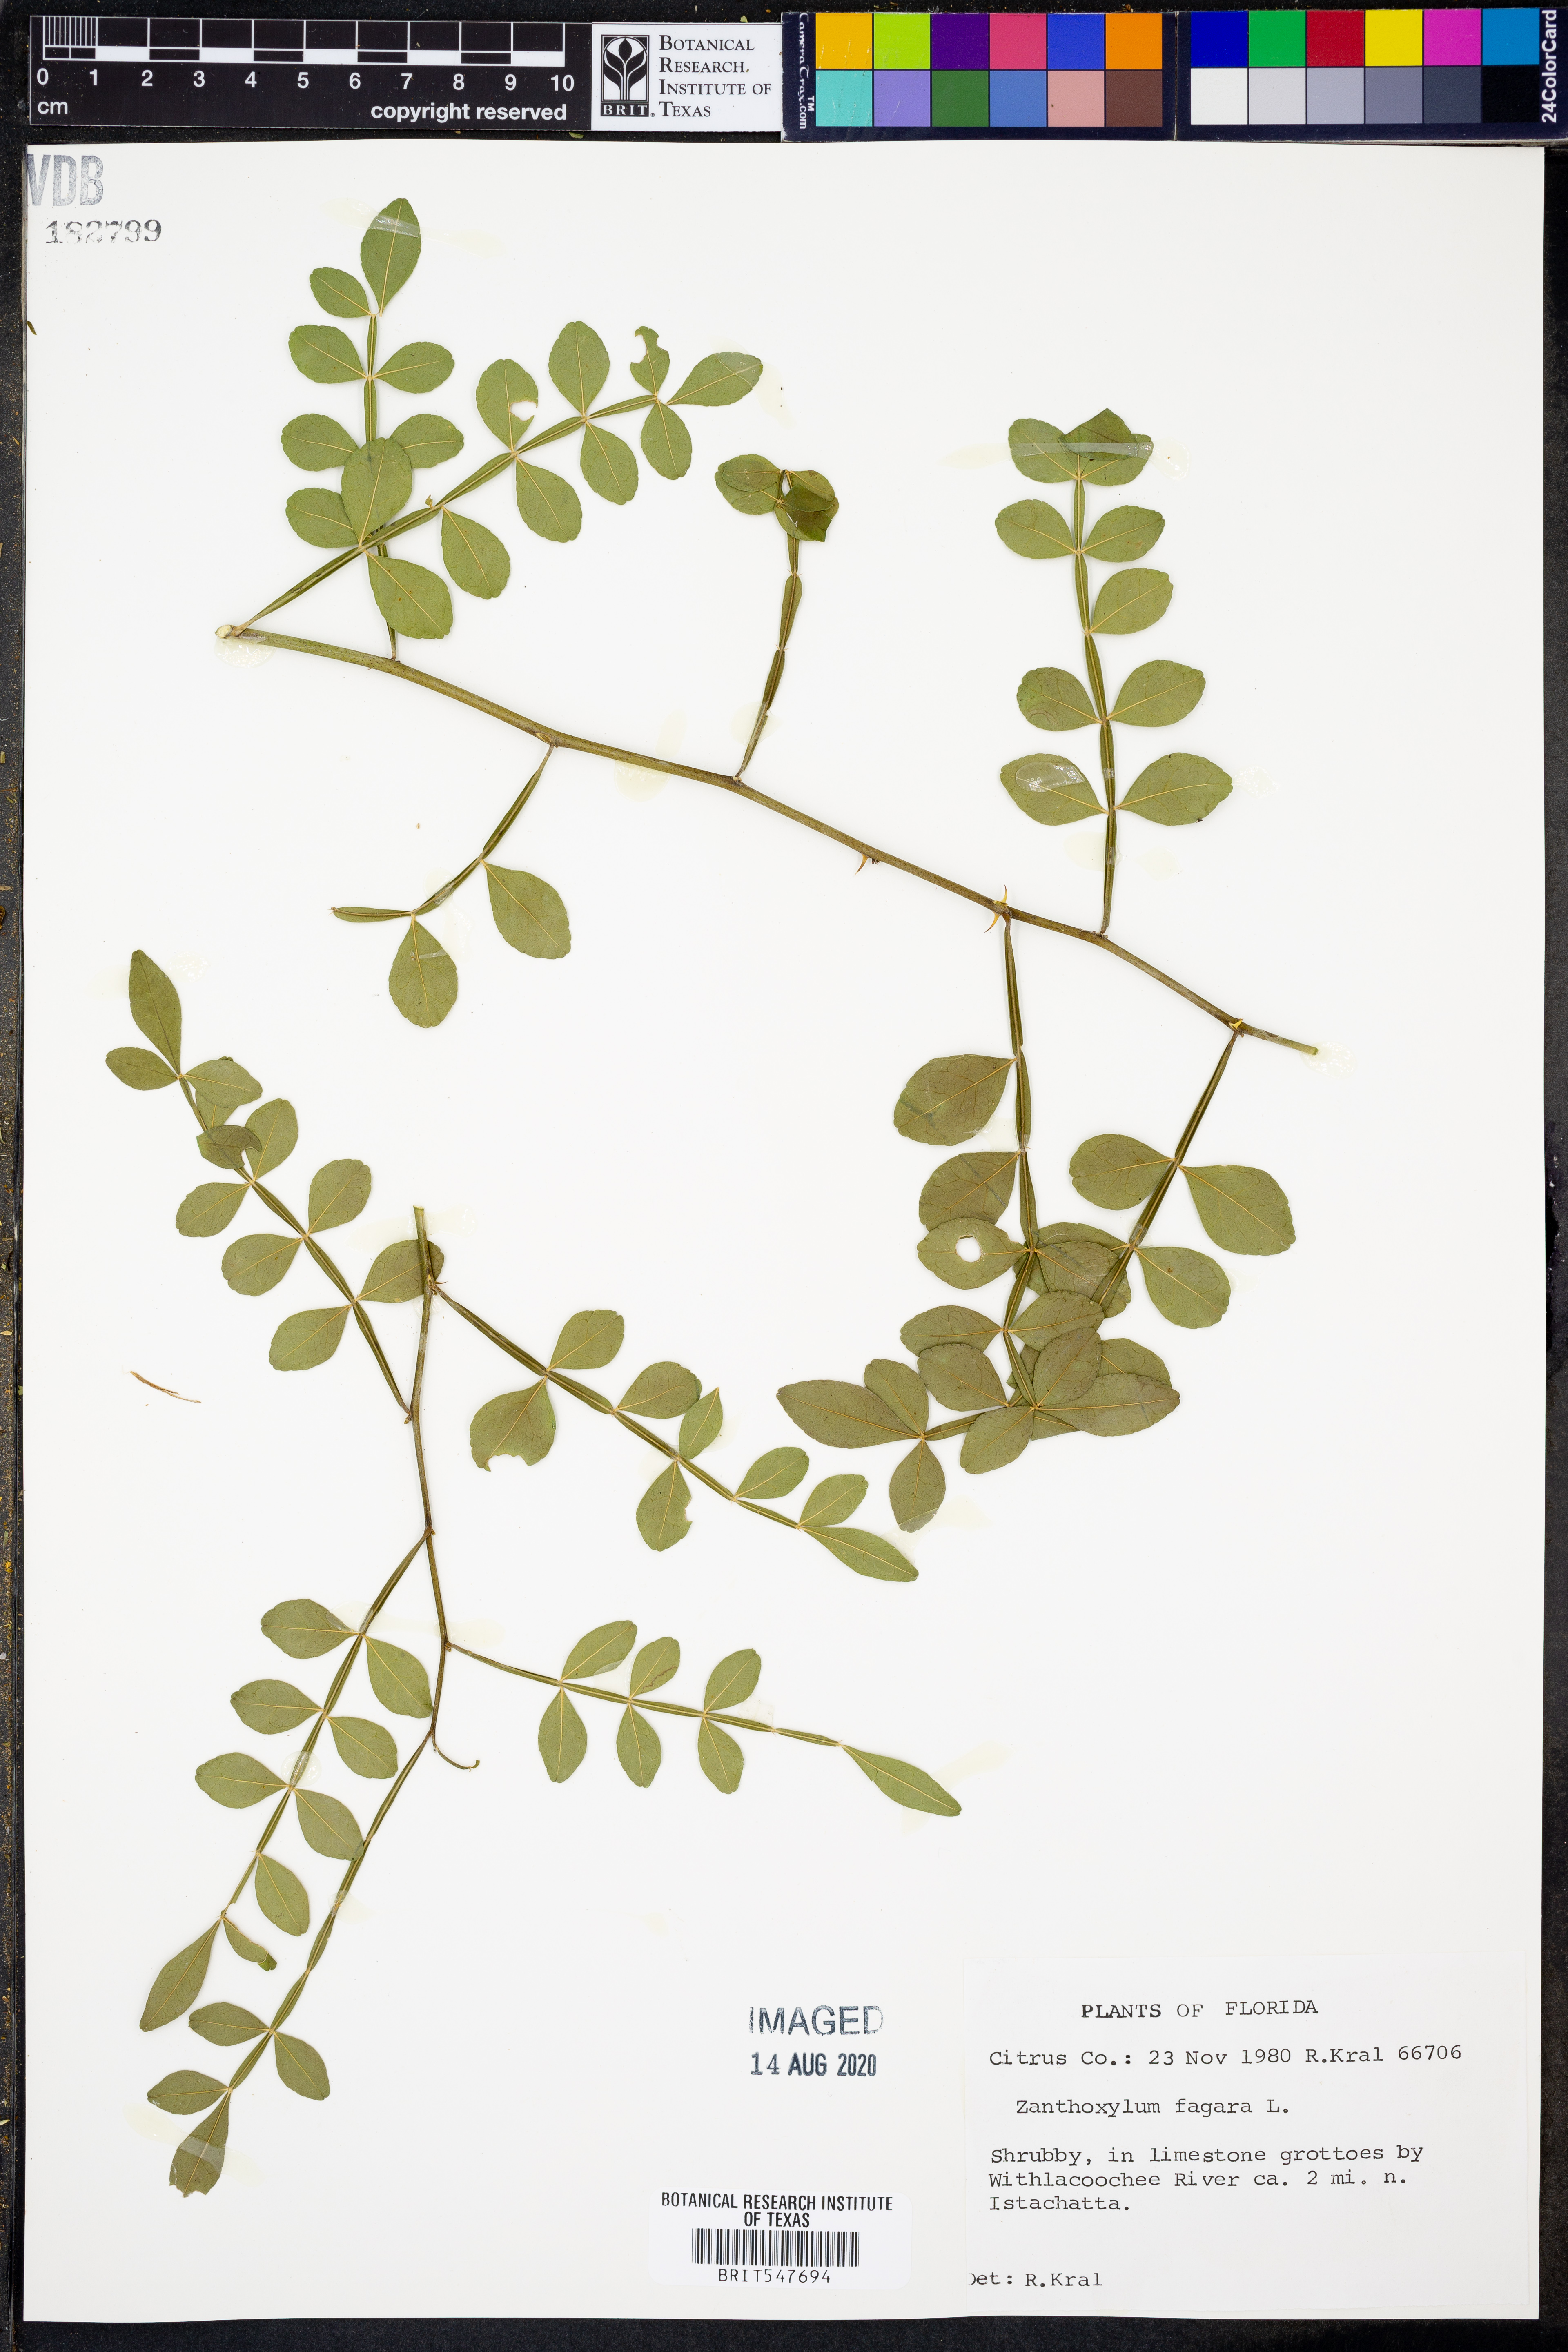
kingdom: Plantae
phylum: Tracheophyta
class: Magnoliopsida
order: Sapindales
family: Rutaceae
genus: Zanthoxylum
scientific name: Zanthoxylum fagara
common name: Lime prickly-ash
